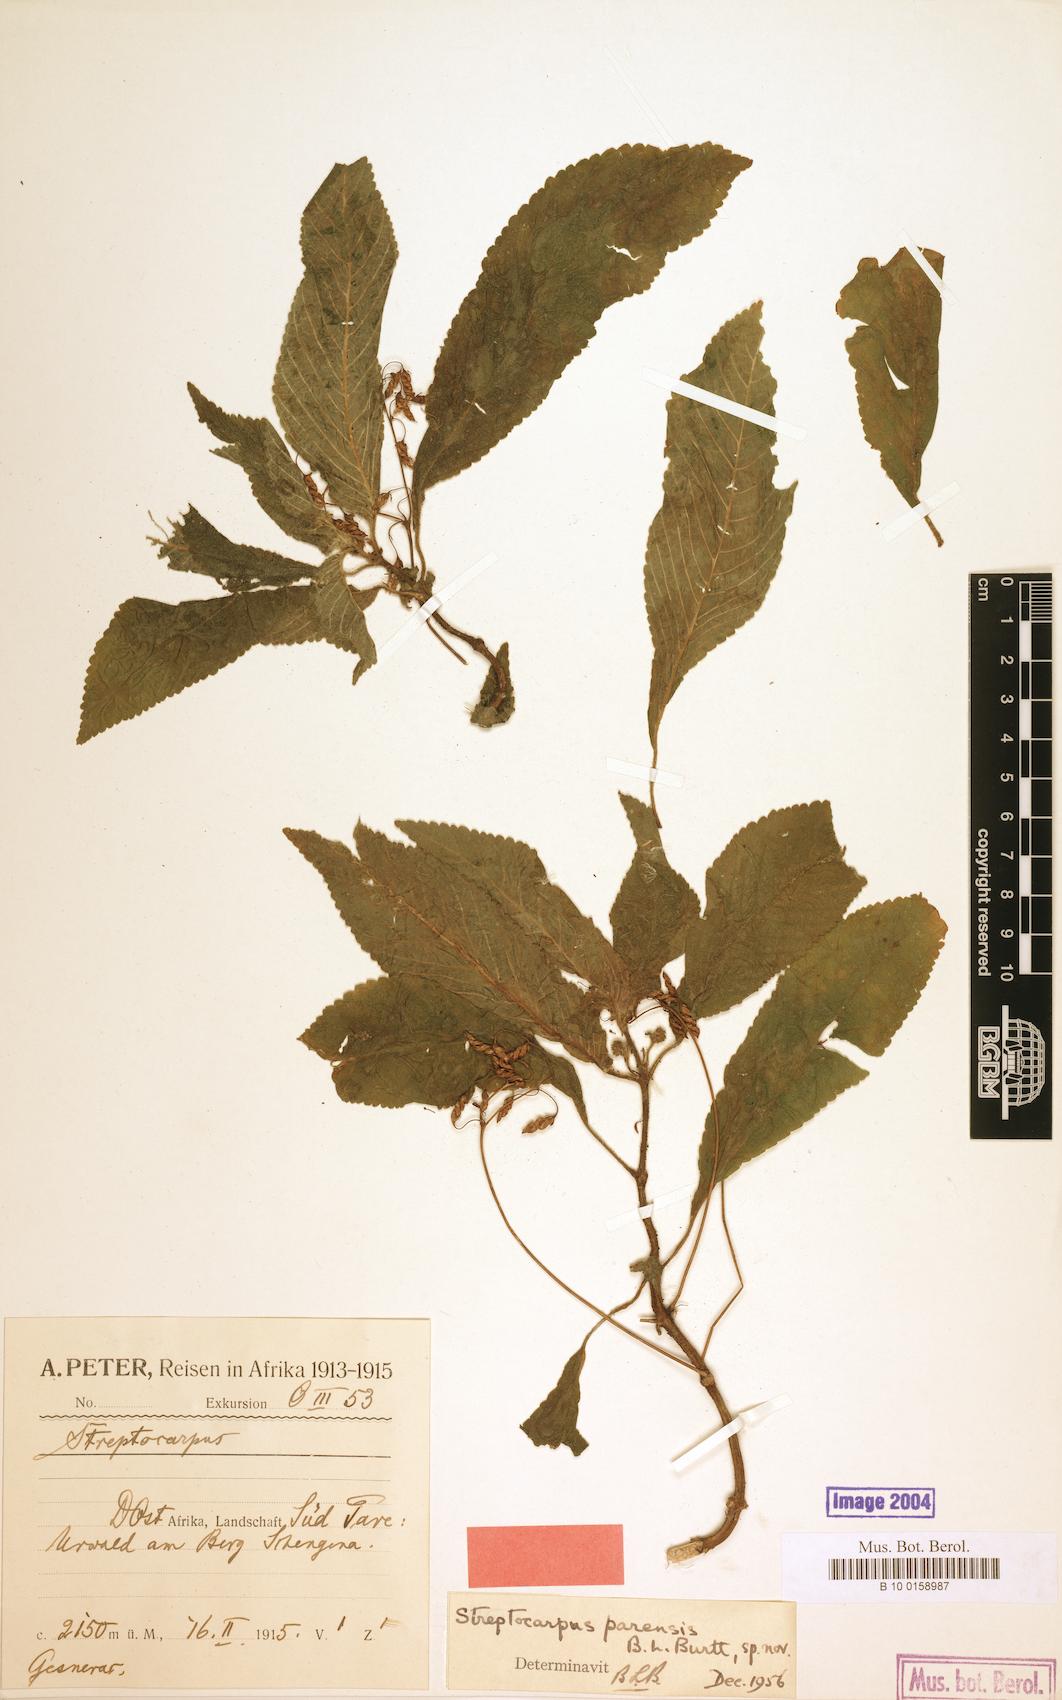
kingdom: Plantae
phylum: Tracheophyta
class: Magnoliopsida
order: Lamiales
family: Gesneriaceae
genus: Streptocarpus
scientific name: Streptocarpus parensis
